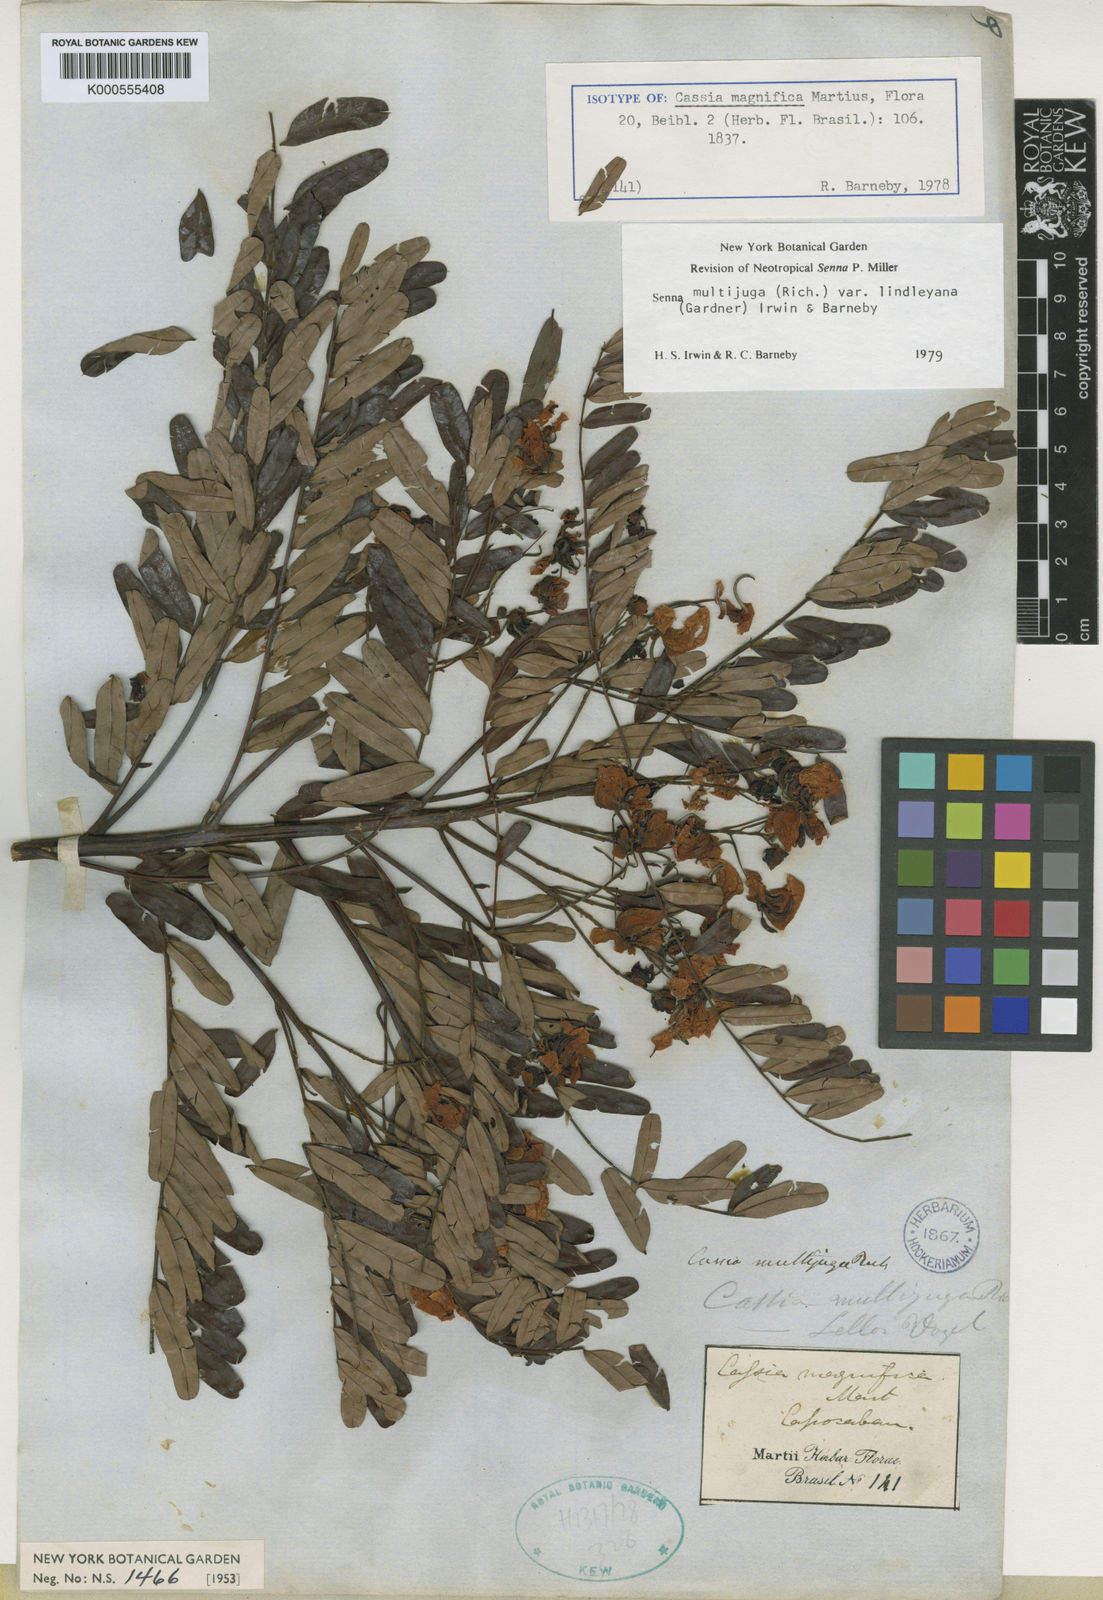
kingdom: Plantae
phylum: Tracheophyta
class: Magnoliopsida
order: Fabales
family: Fabaceae
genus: Senna
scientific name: Senna multijuga
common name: False sicklepod
